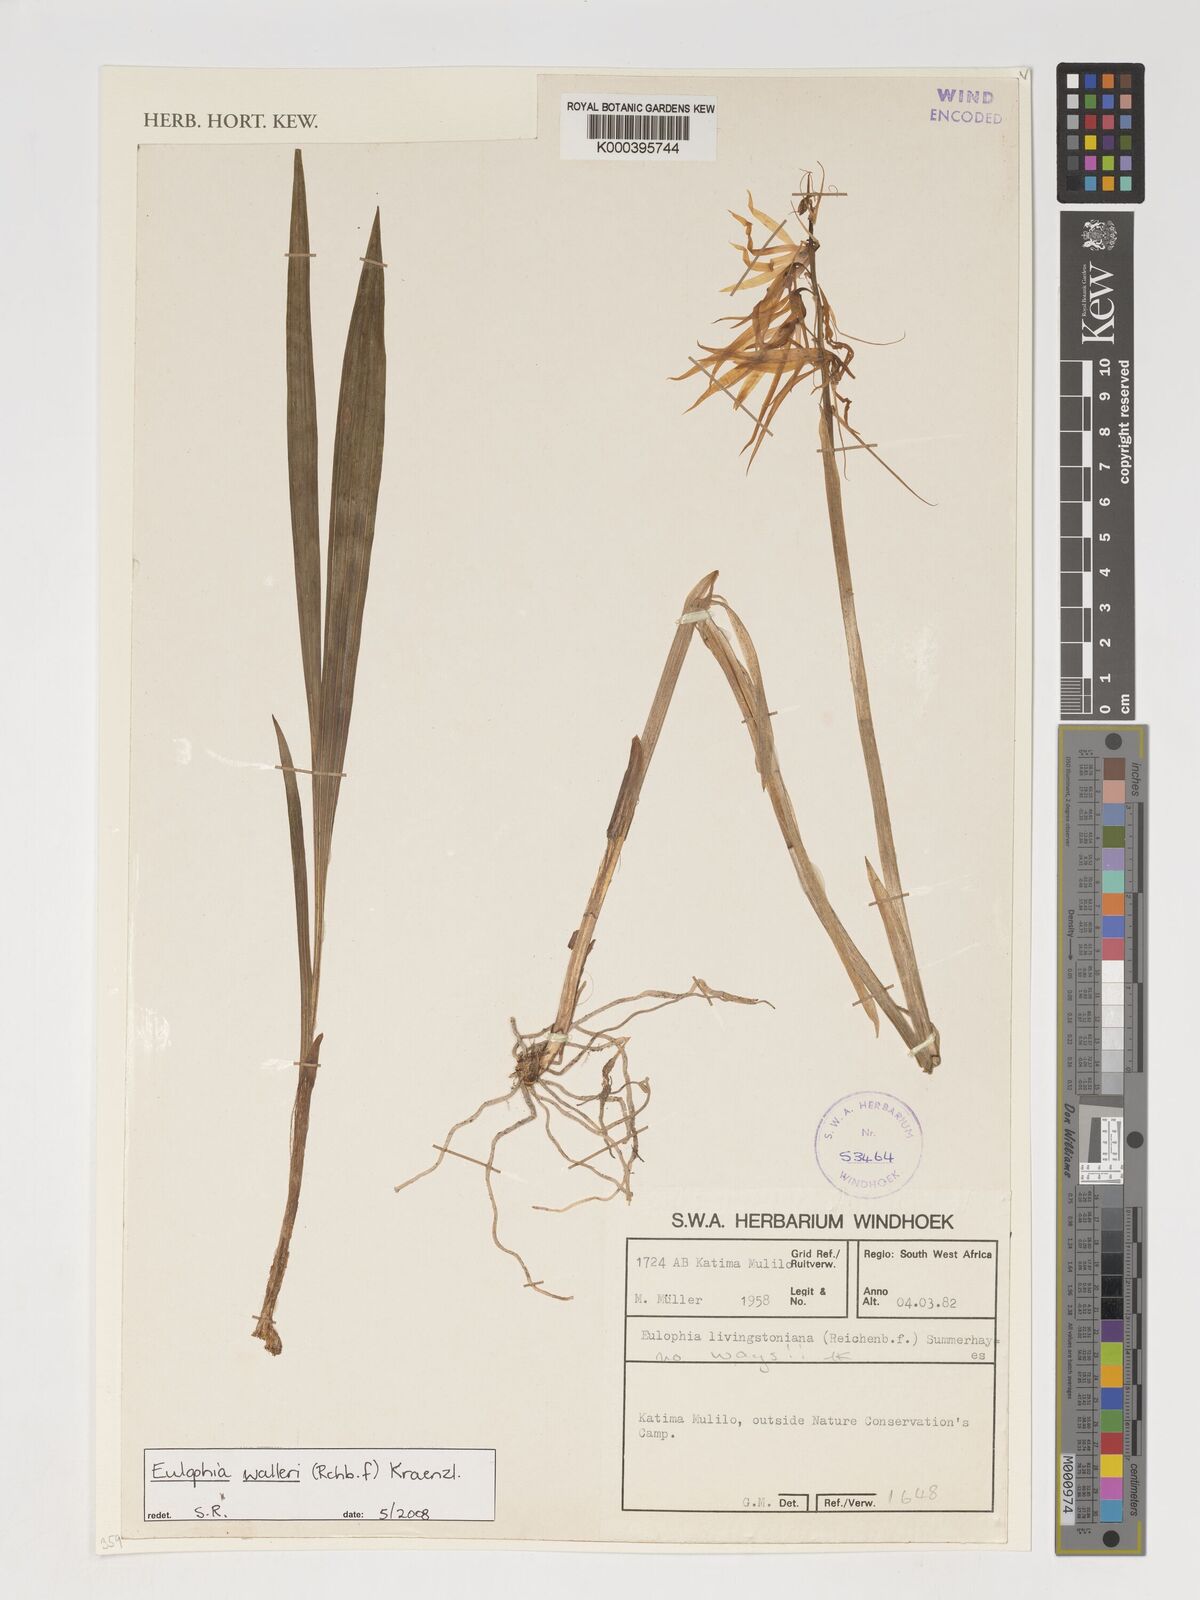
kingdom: Plantae
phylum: Tracheophyta
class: Liliopsida
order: Asparagales
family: Orchidaceae
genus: Eulophia
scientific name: Eulophia walleri
